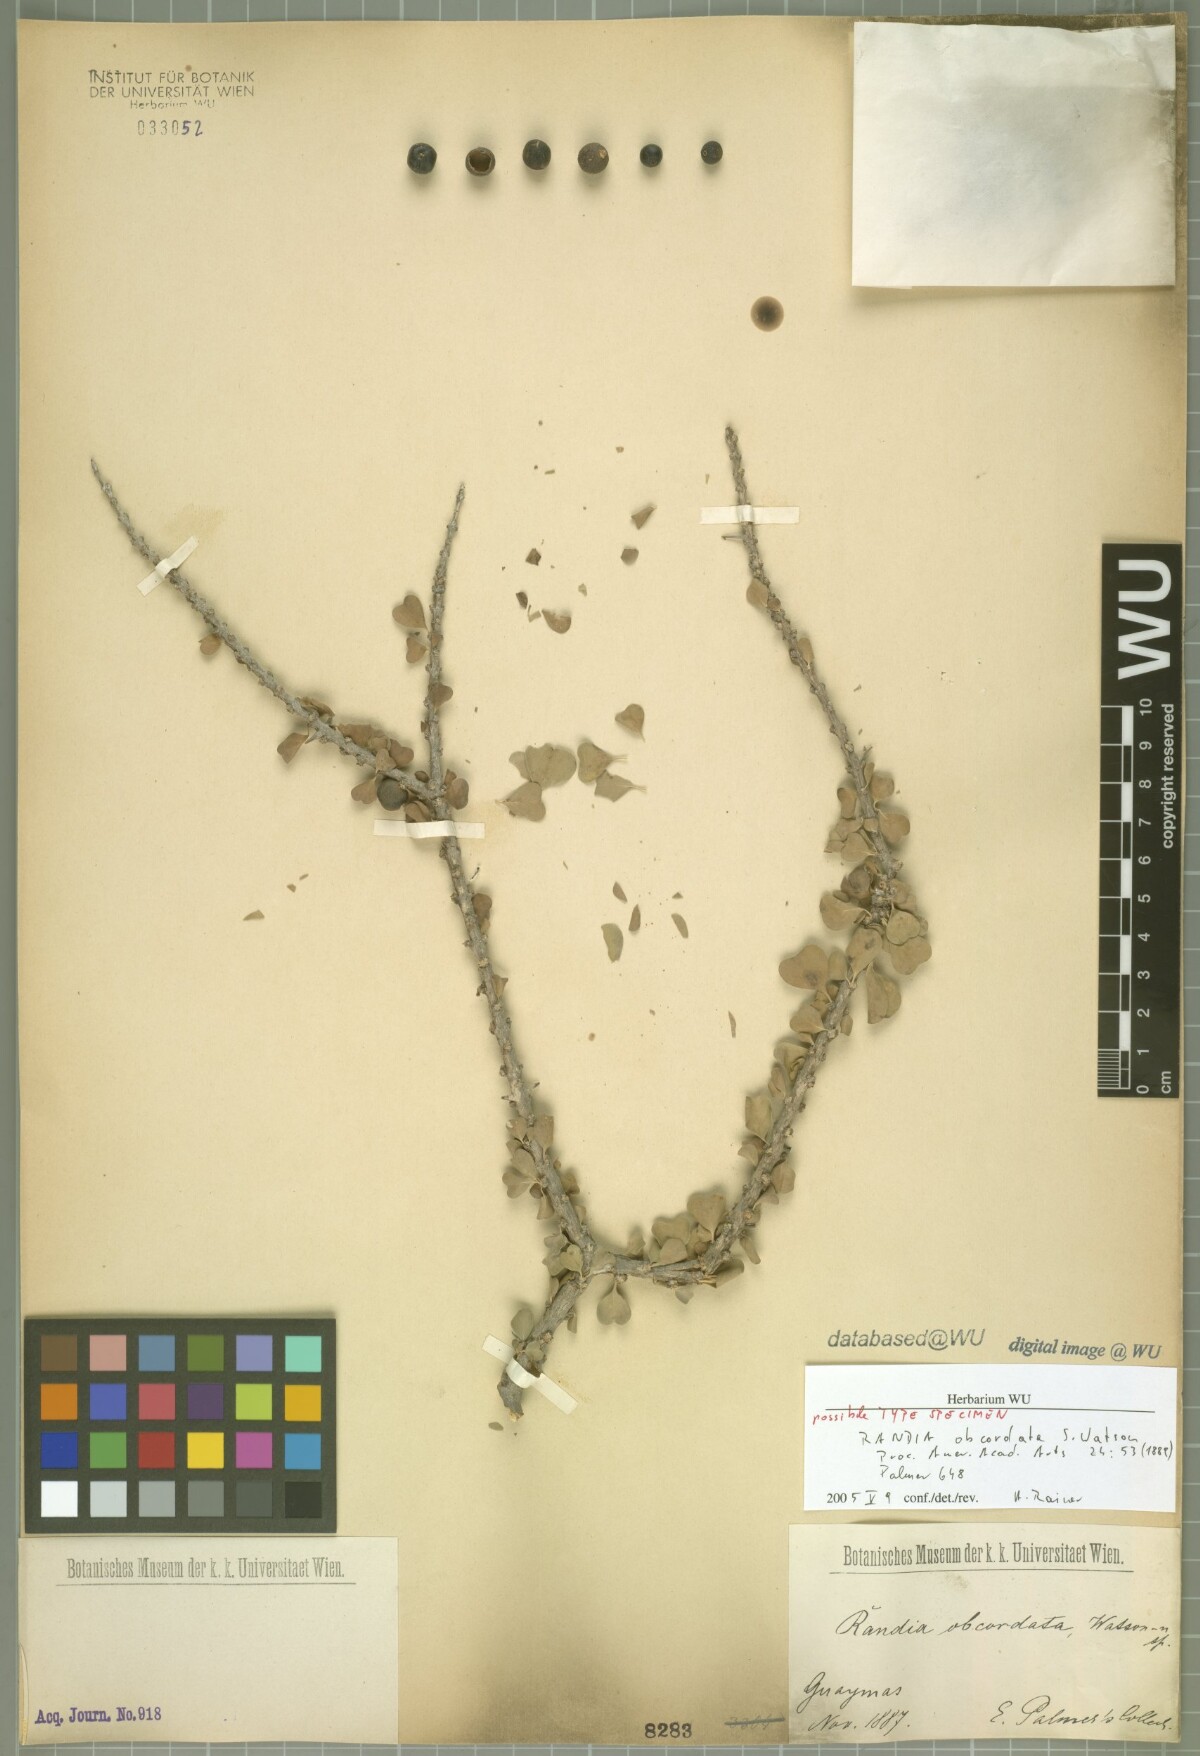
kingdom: Plantae
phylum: Tracheophyta
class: Magnoliopsida
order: Gentianales
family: Rubiaceae
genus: Randia
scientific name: Randia obcordata
